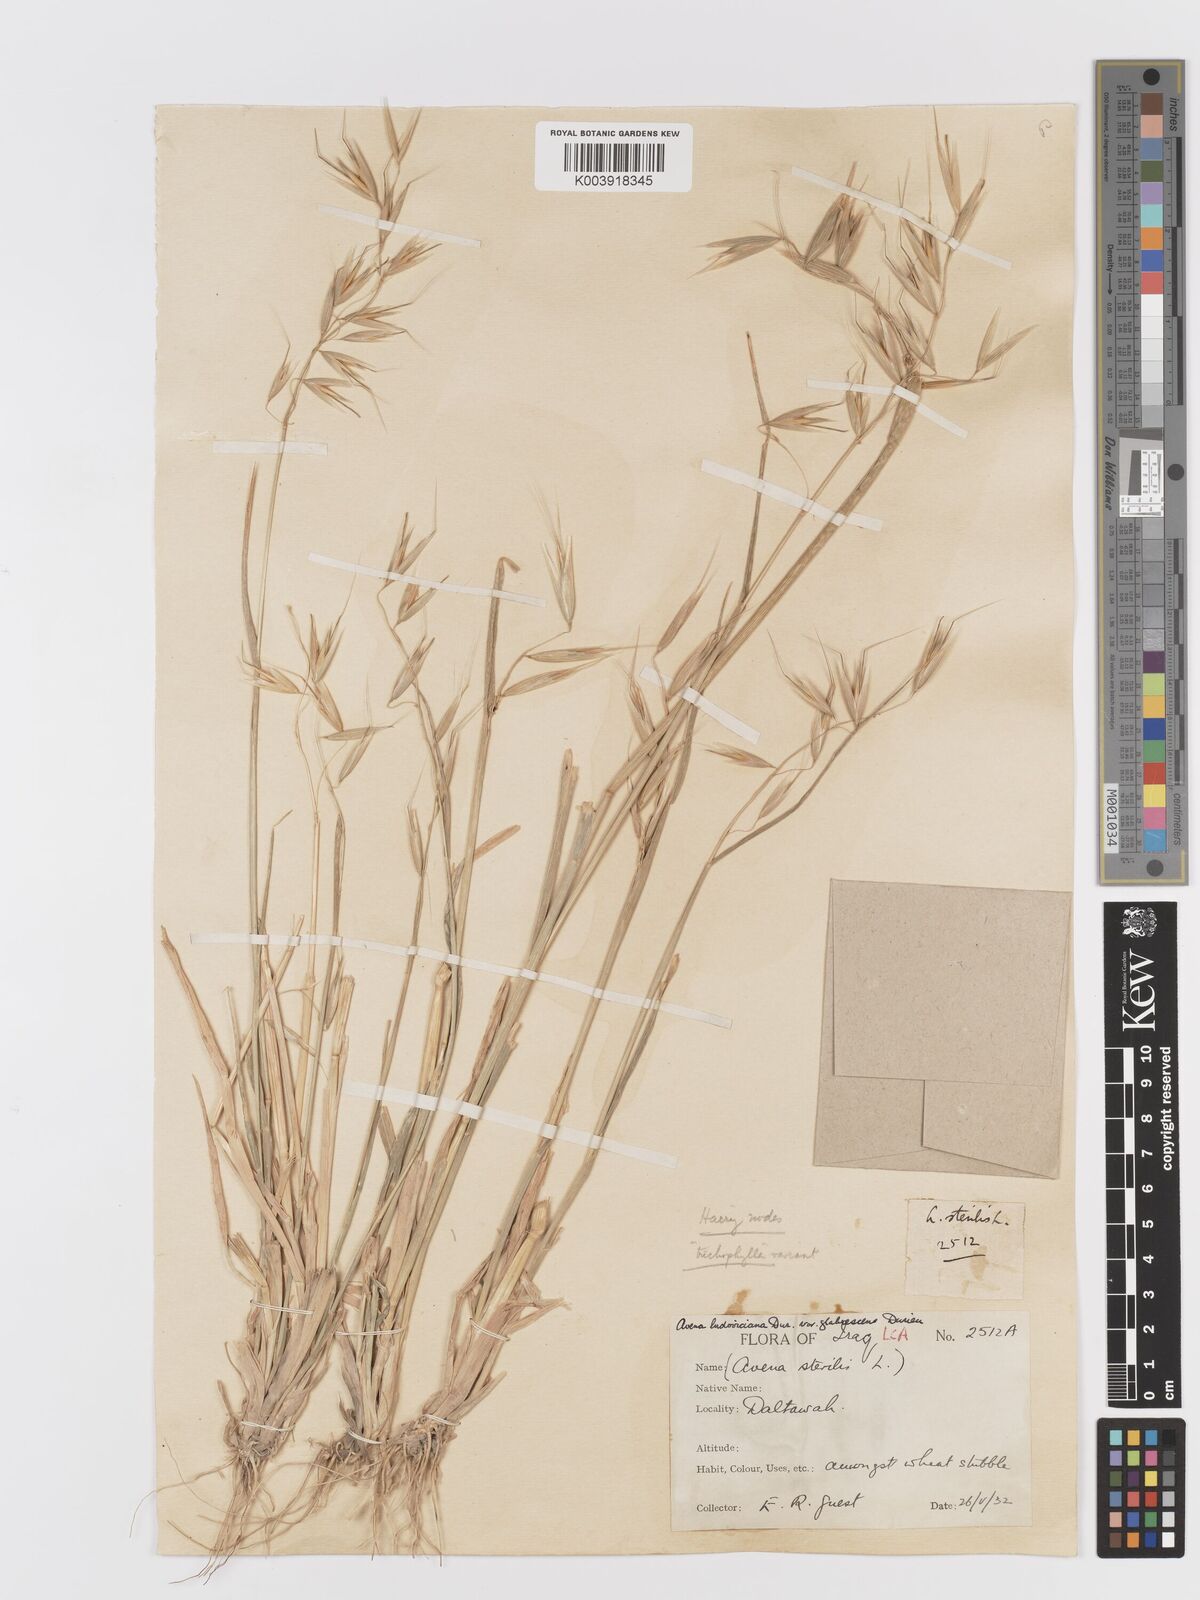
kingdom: Plantae
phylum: Tracheophyta
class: Liliopsida
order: Poales
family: Poaceae
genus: Avena
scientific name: Avena sterilis
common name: Animated oat
